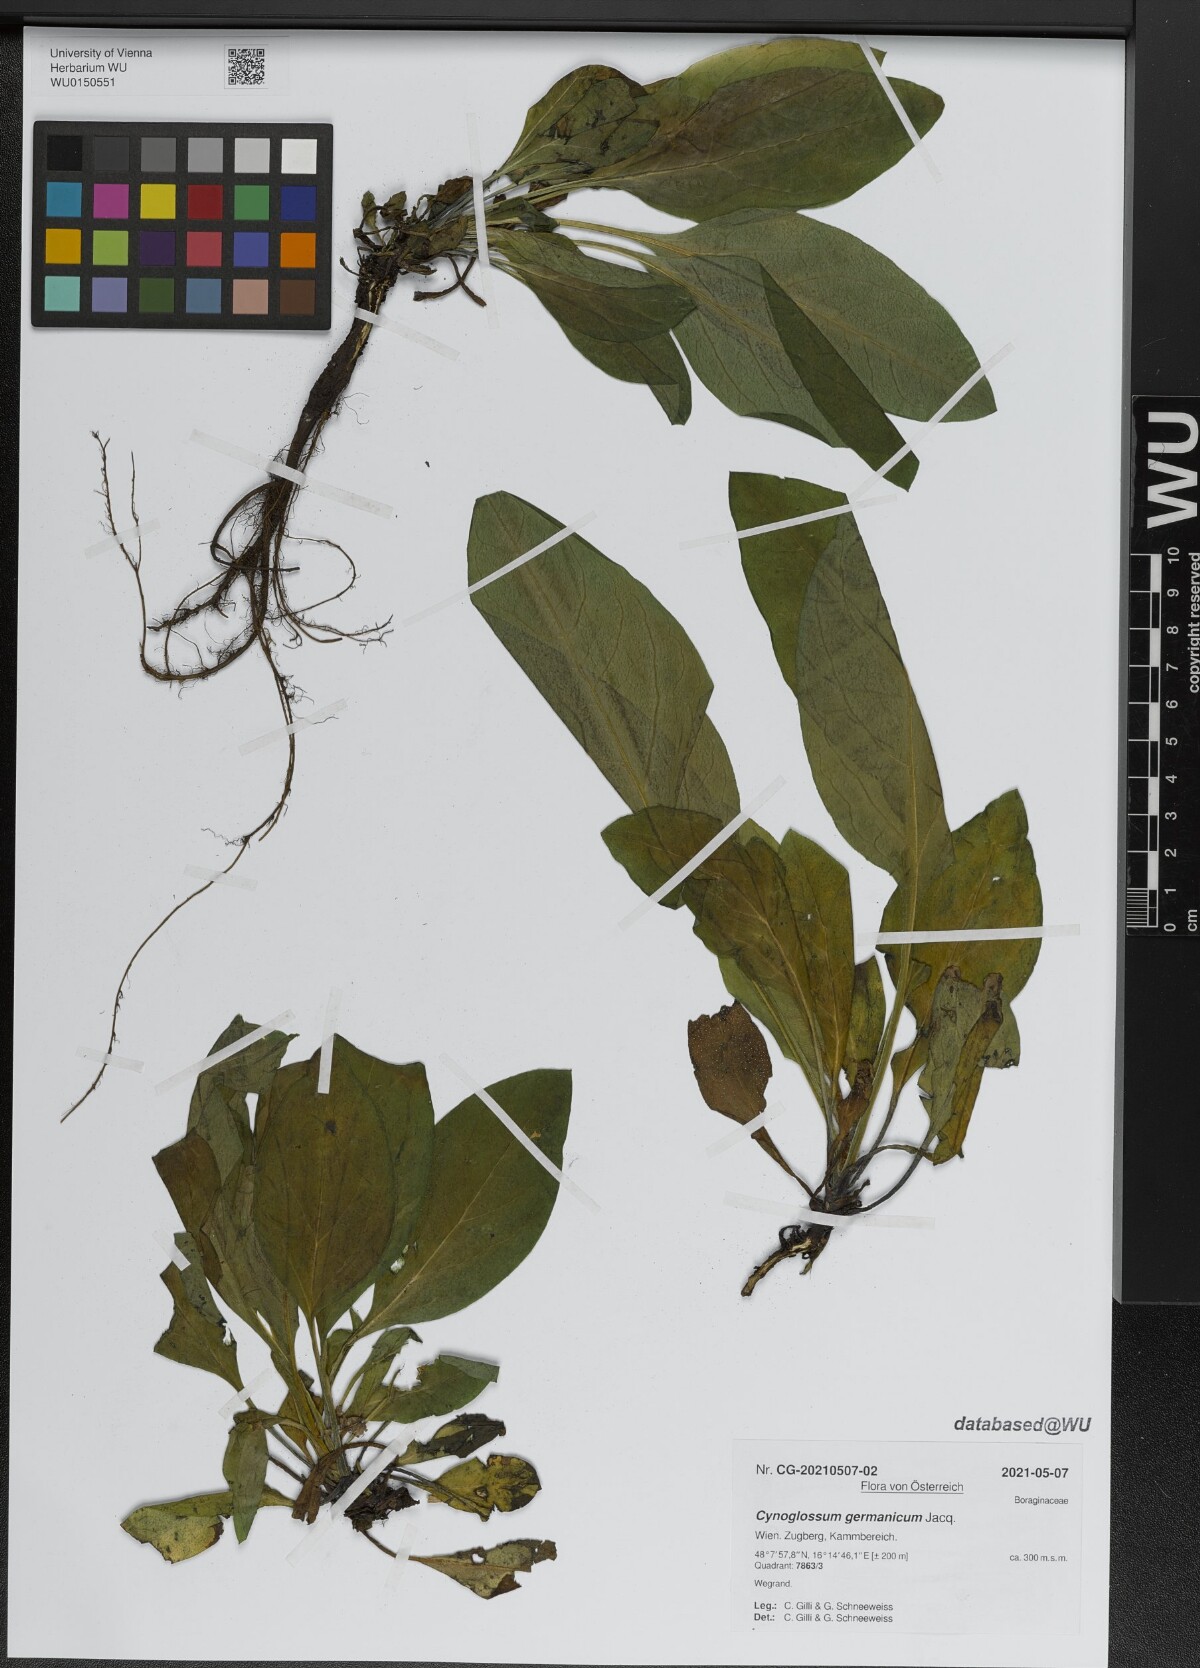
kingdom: Plantae
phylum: Tracheophyta
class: Magnoliopsida
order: Boraginales
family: Boraginaceae
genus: Cynoglossum
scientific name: Cynoglossum germanicum
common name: Green hound's-tongue
